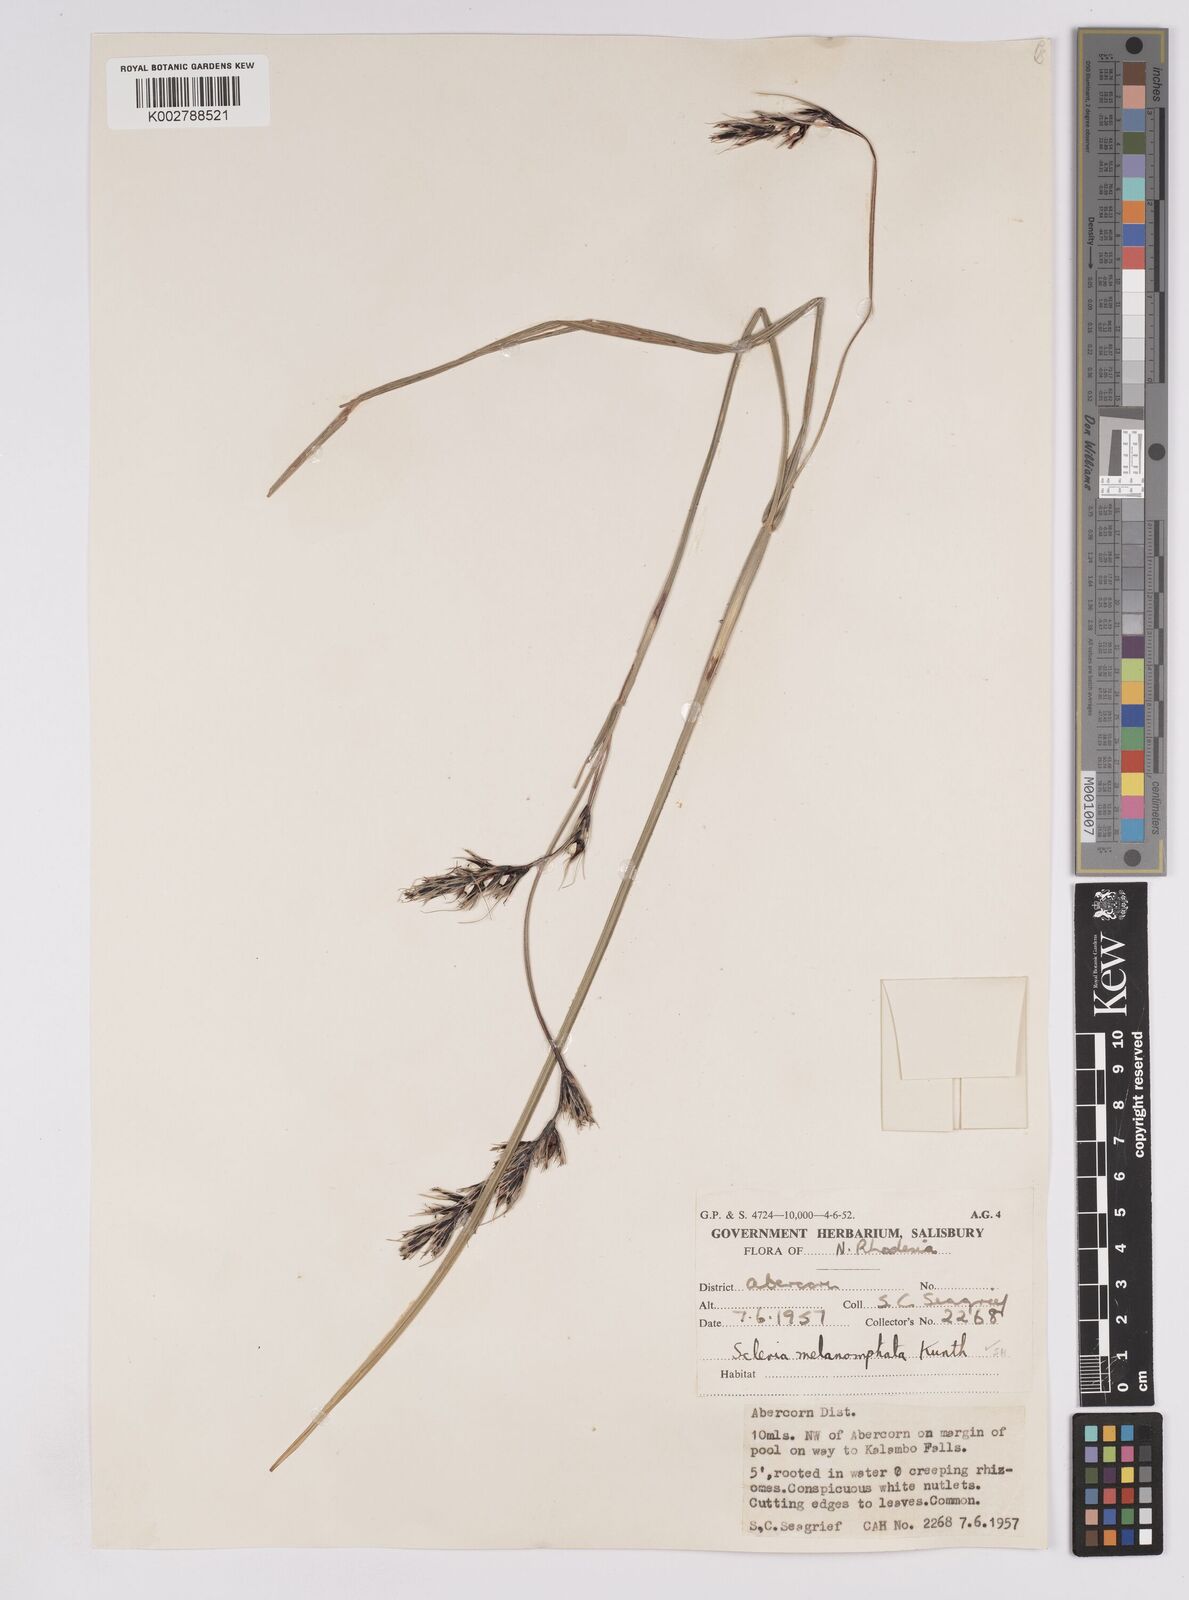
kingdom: Plantae
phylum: Tracheophyta
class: Liliopsida
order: Poales
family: Cyperaceae
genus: Scleria
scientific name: Scleria melanomphala
